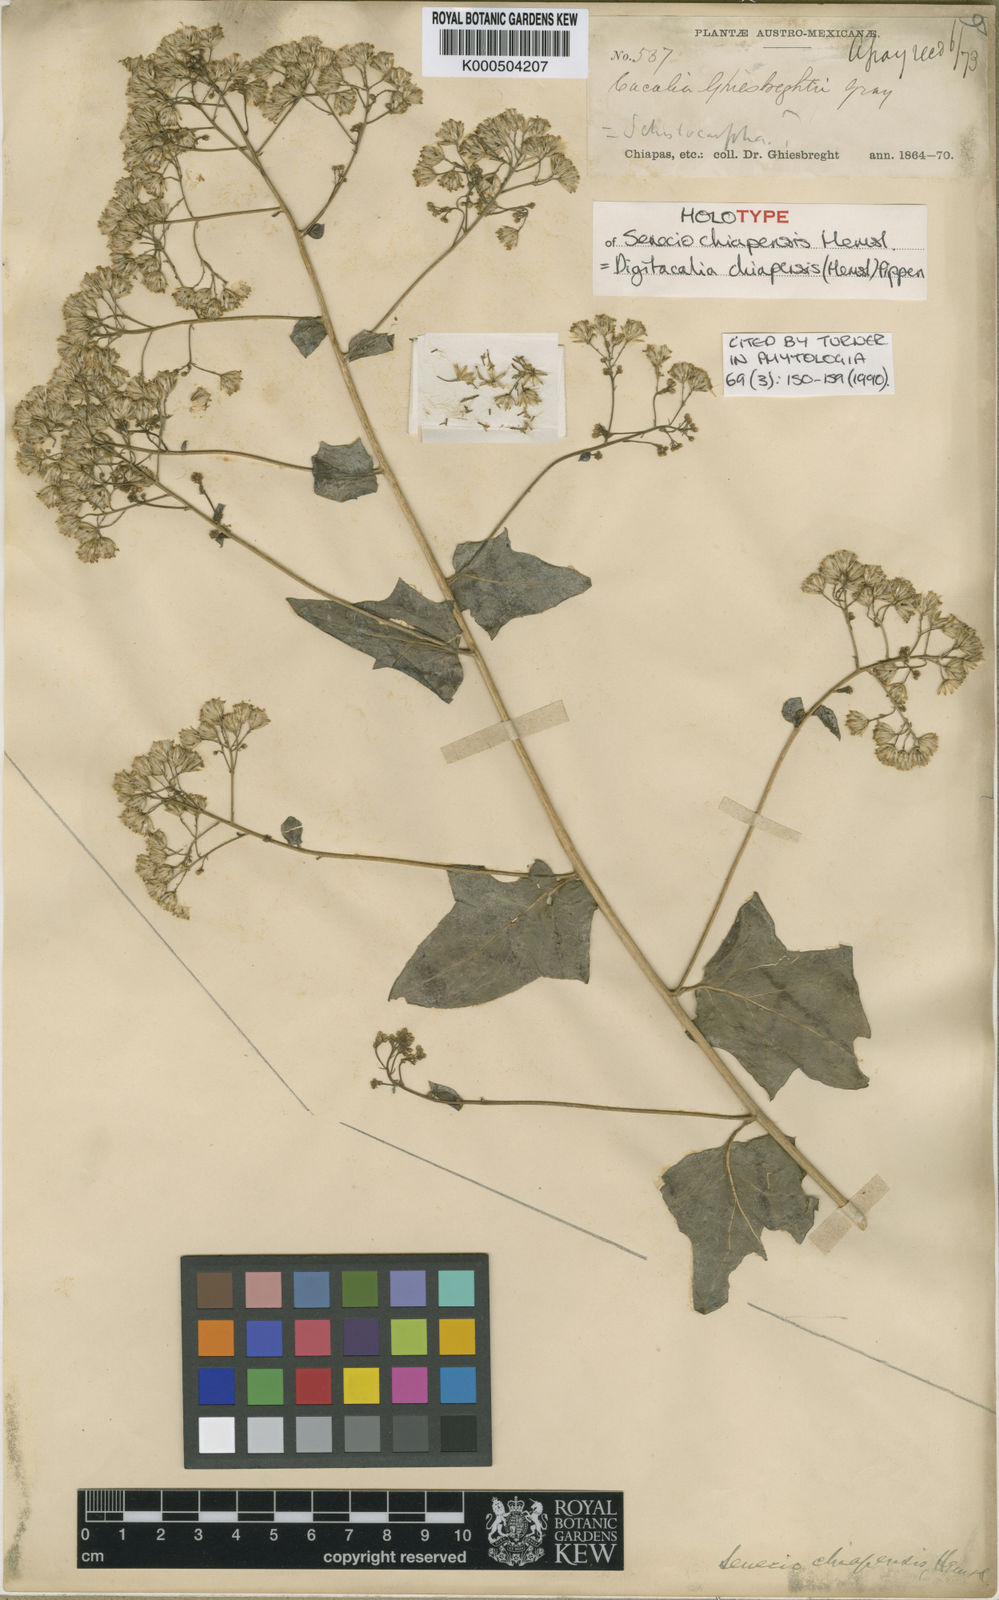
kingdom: Plantae
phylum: Tracheophyta
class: Magnoliopsida
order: Asterales
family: Asteraceae
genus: Digitacalia
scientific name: Digitacalia chiapensis
